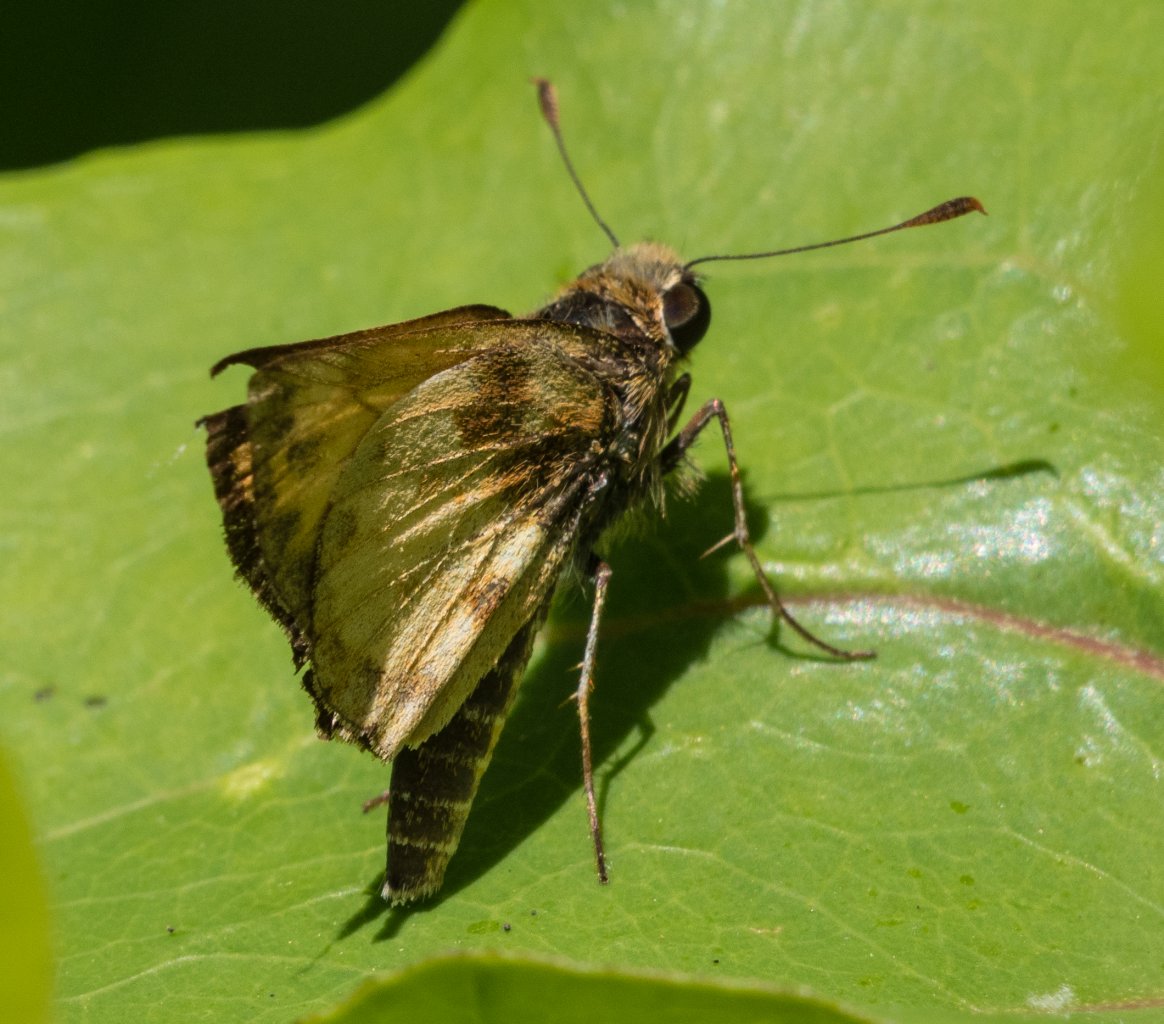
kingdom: Animalia
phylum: Arthropoda
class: Insecta
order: Lepidoptera
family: Hesperiidae
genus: Lon
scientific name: Lon zabulon
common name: Zabulon Skipper
